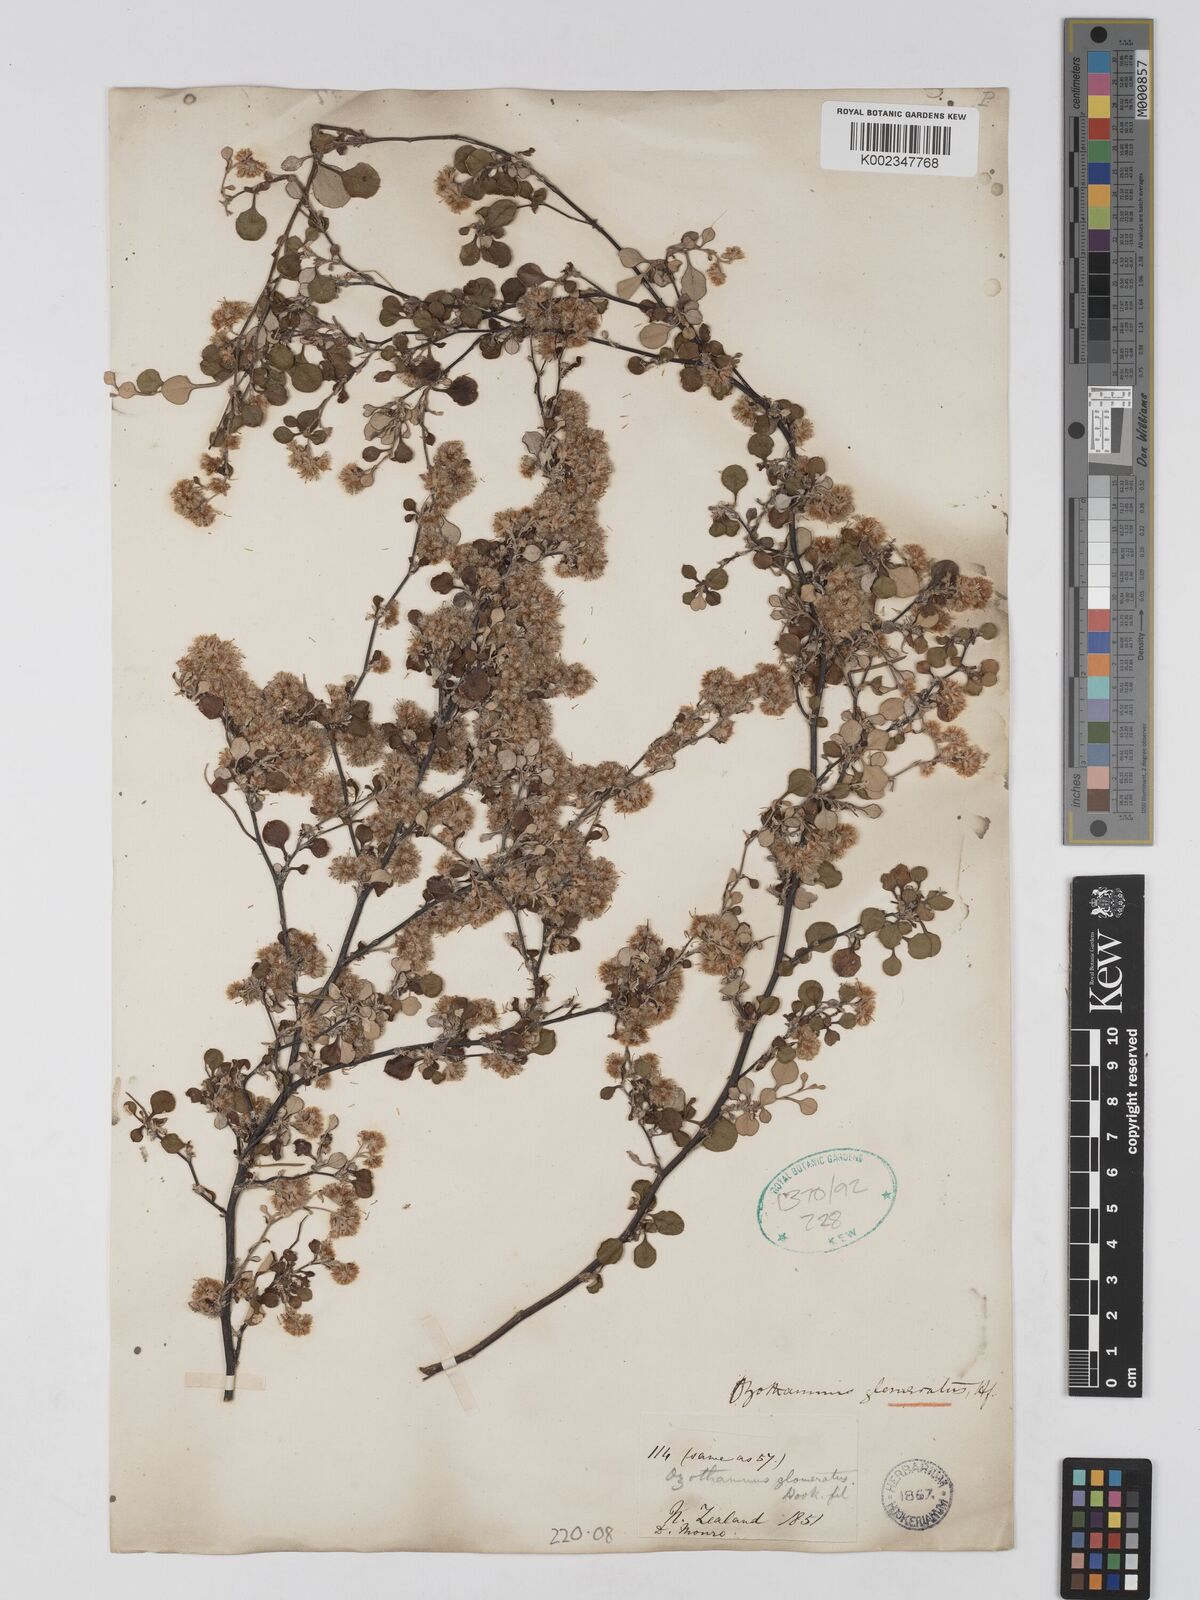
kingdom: Plantae
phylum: Tracheophyta
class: Magnoliopsida
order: Asterales
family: Asteraceae
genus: Ozothamnus
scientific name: Ozothamnus glomeratus
